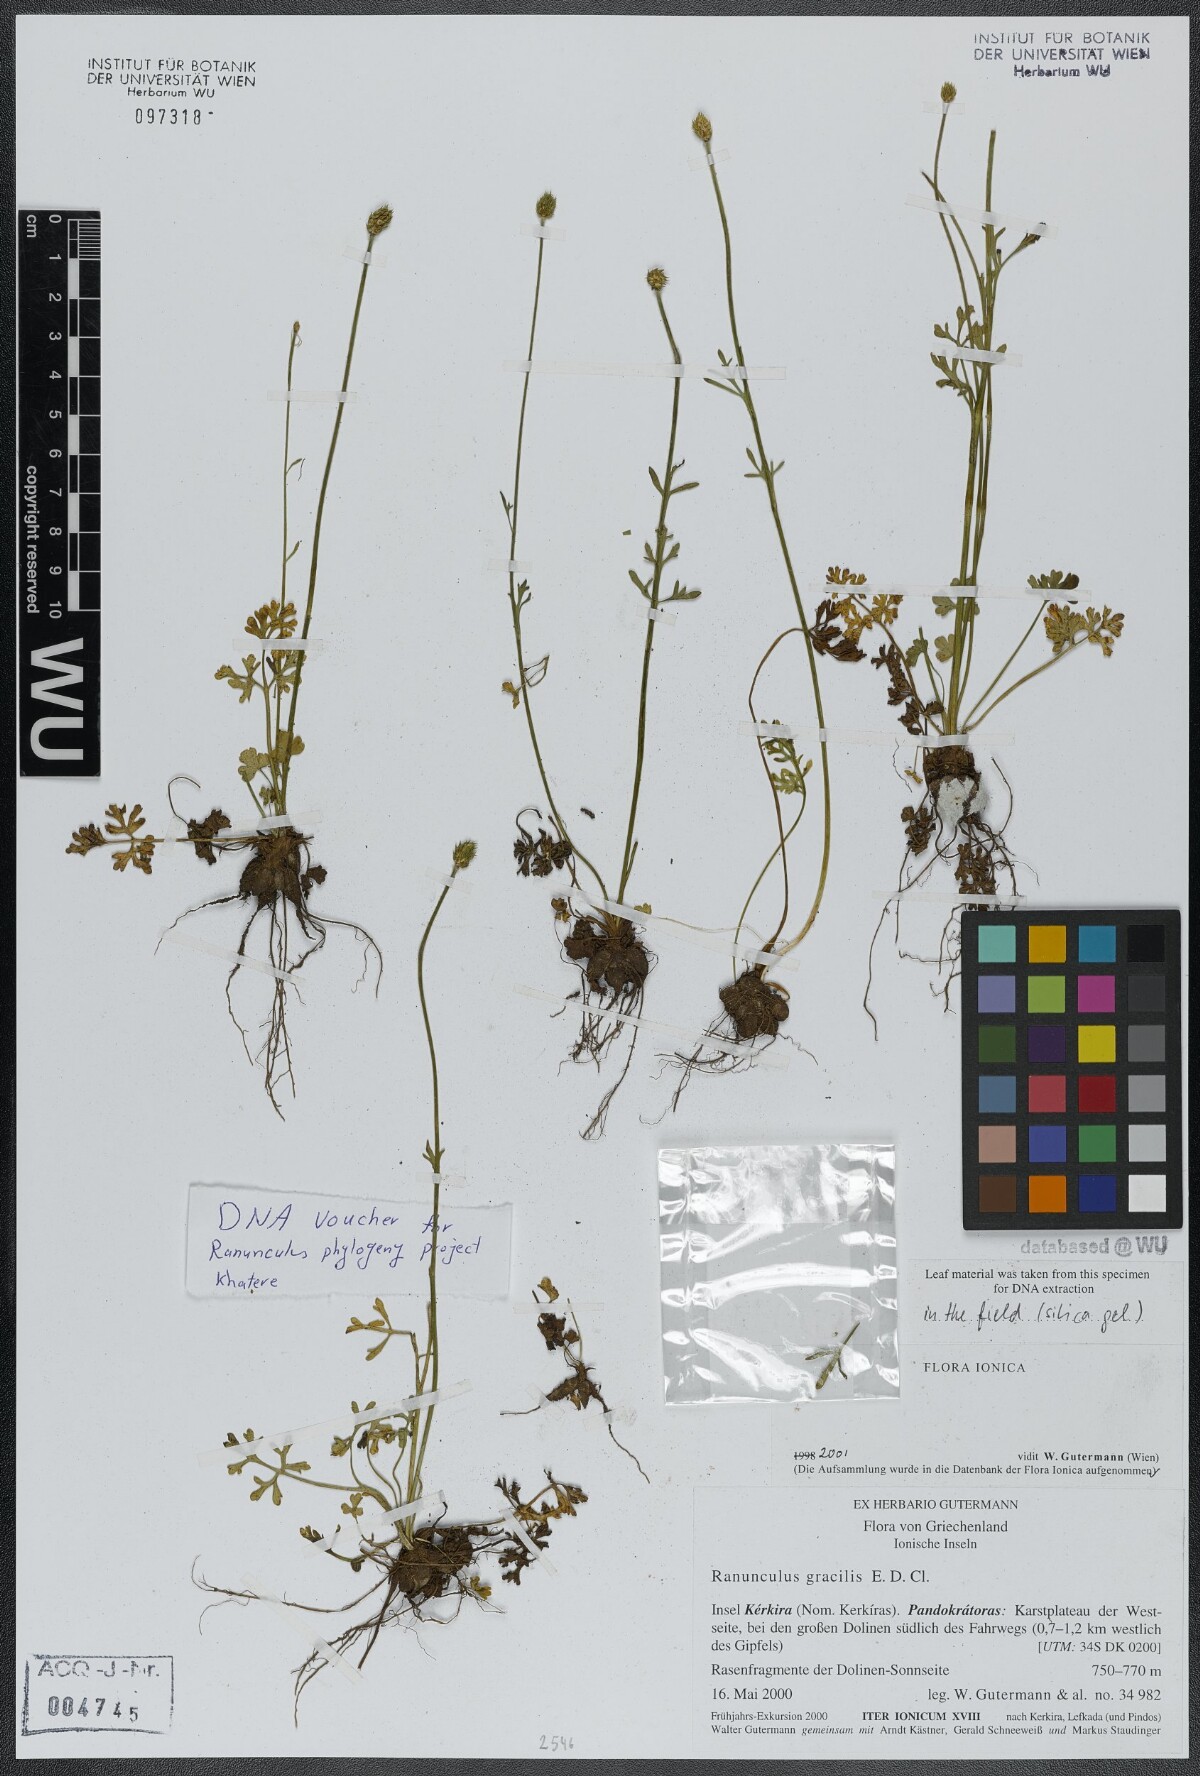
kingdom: Plantae
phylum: Tracheophyta
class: Magnoliopsida
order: Ranunculales
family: Ranunculaceae
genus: Ranunculus
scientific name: Ranunculus gracilis
